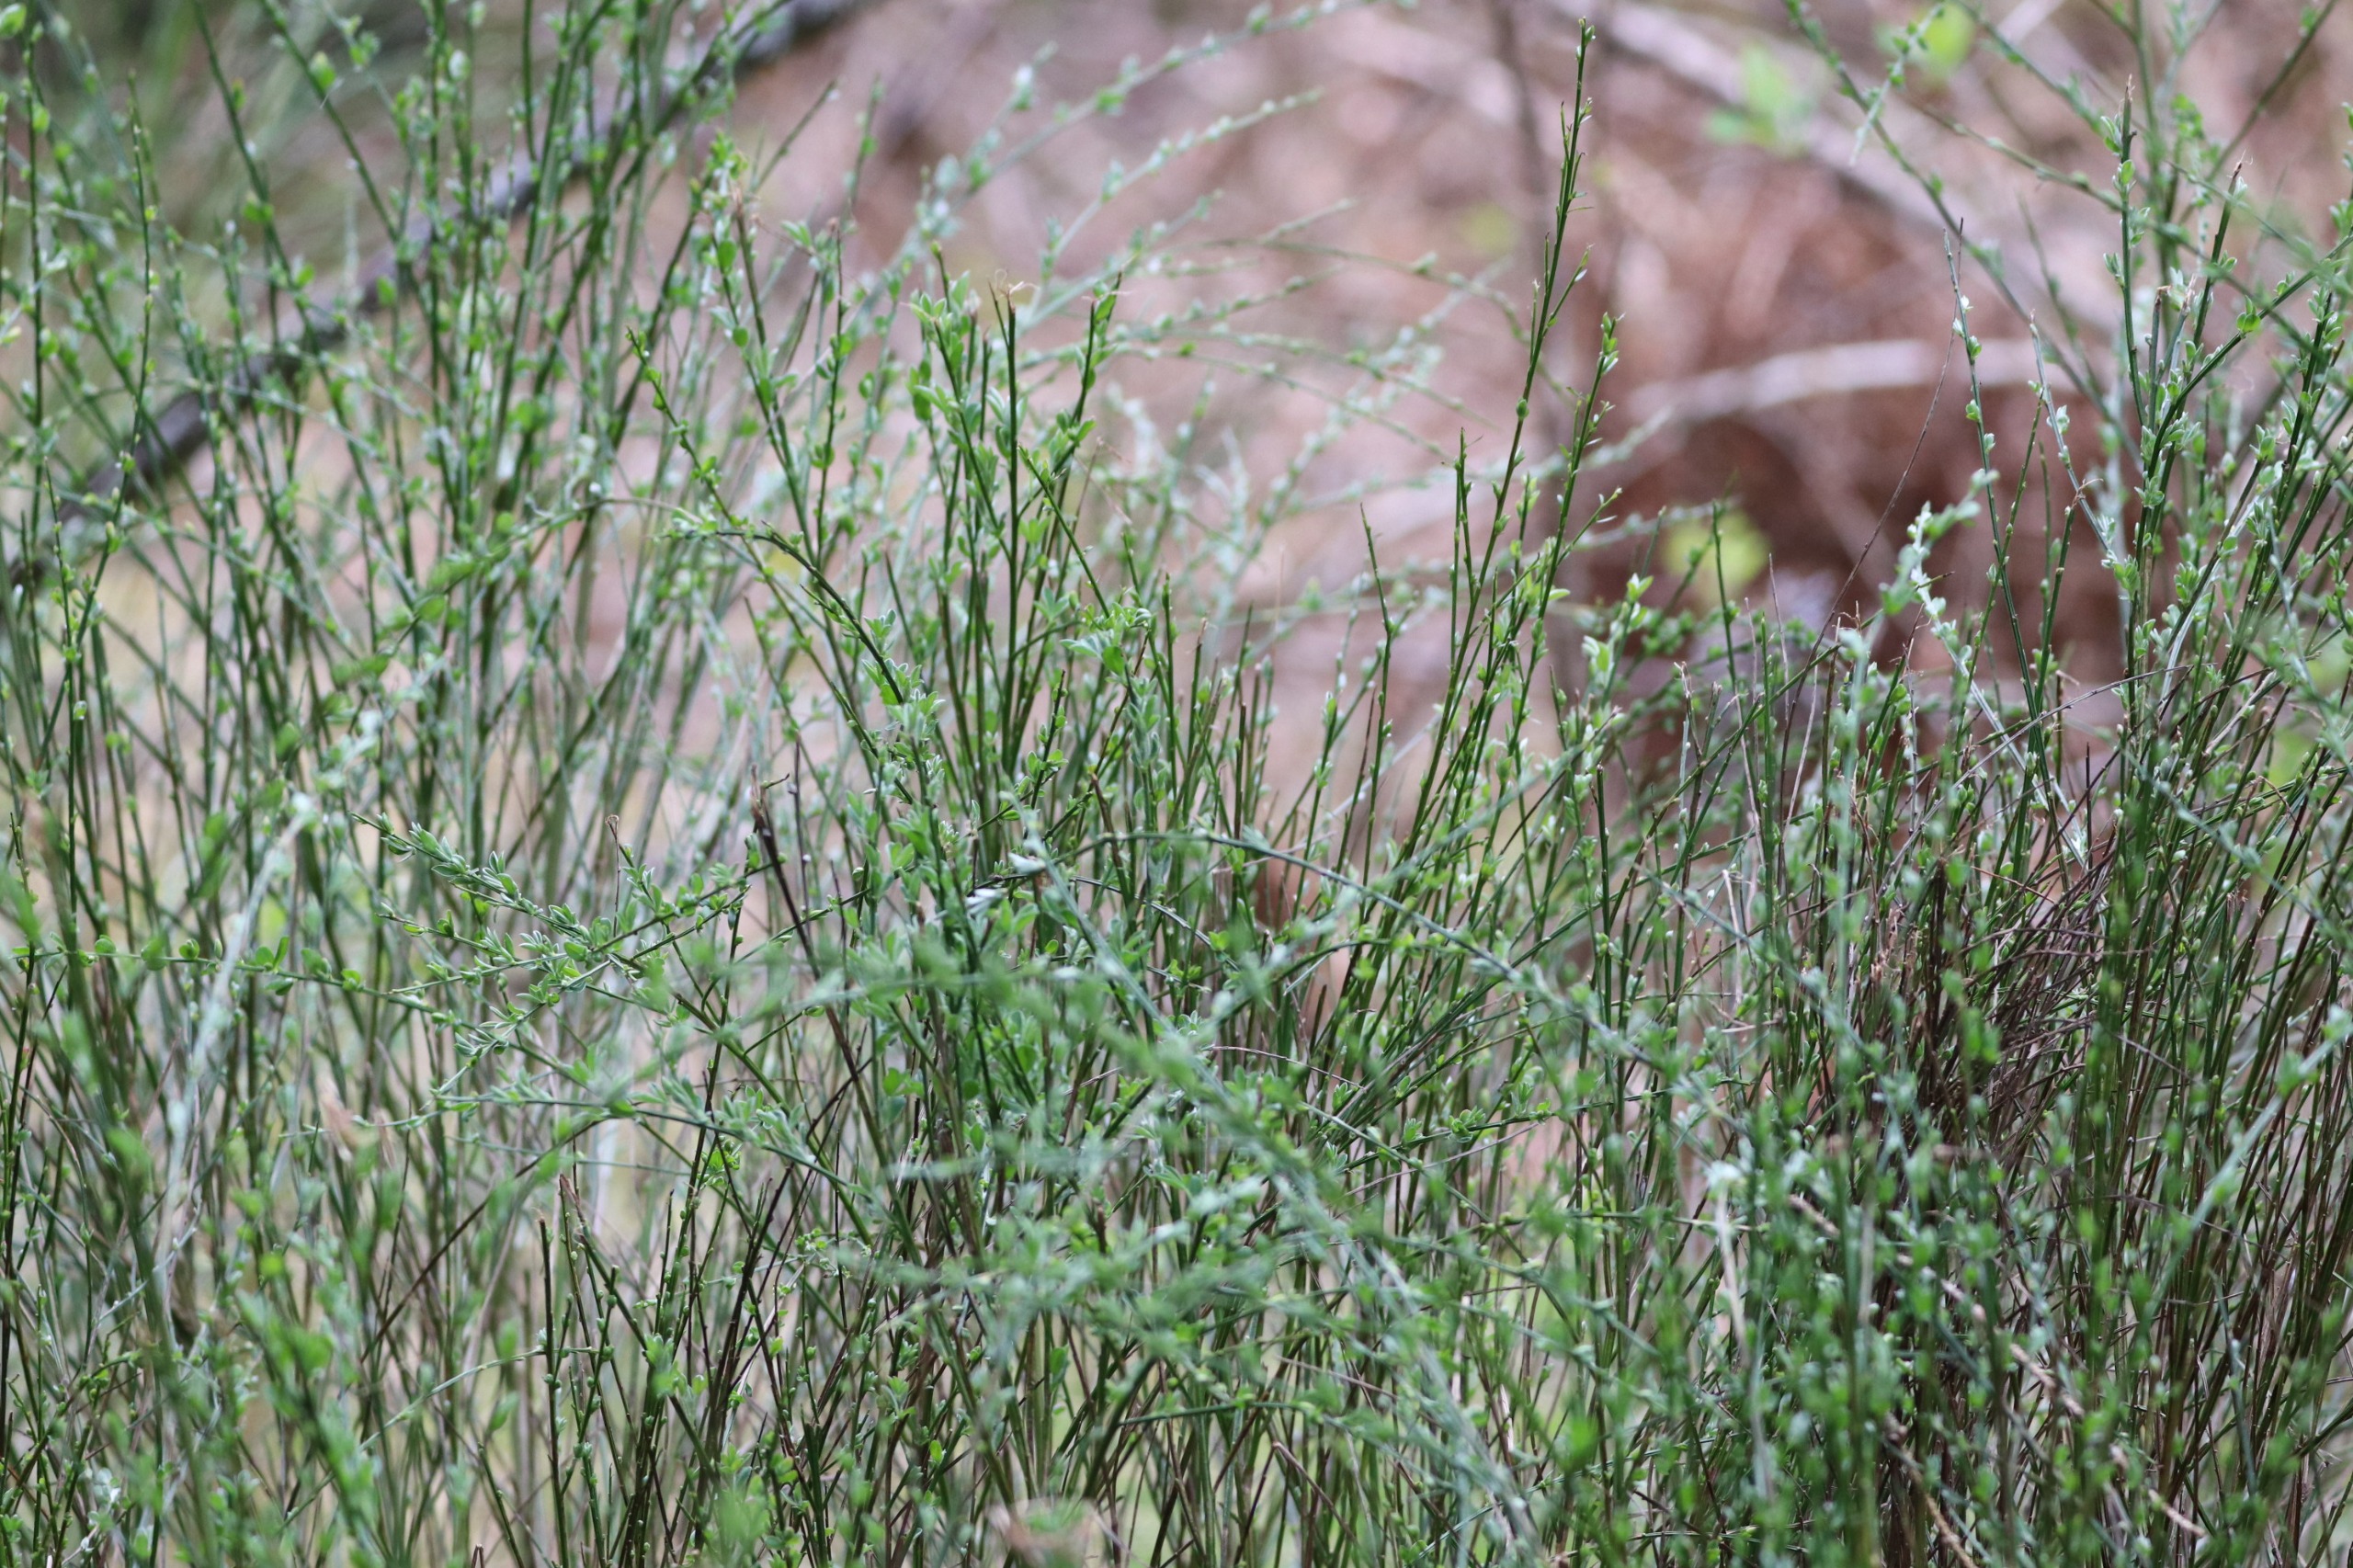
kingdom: Plantae
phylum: Tracheophyta
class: Magnoliopsida
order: Fabales
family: Fabaceae
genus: Cytisus
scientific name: Cytisus scoparius
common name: Almindelig gyvel
